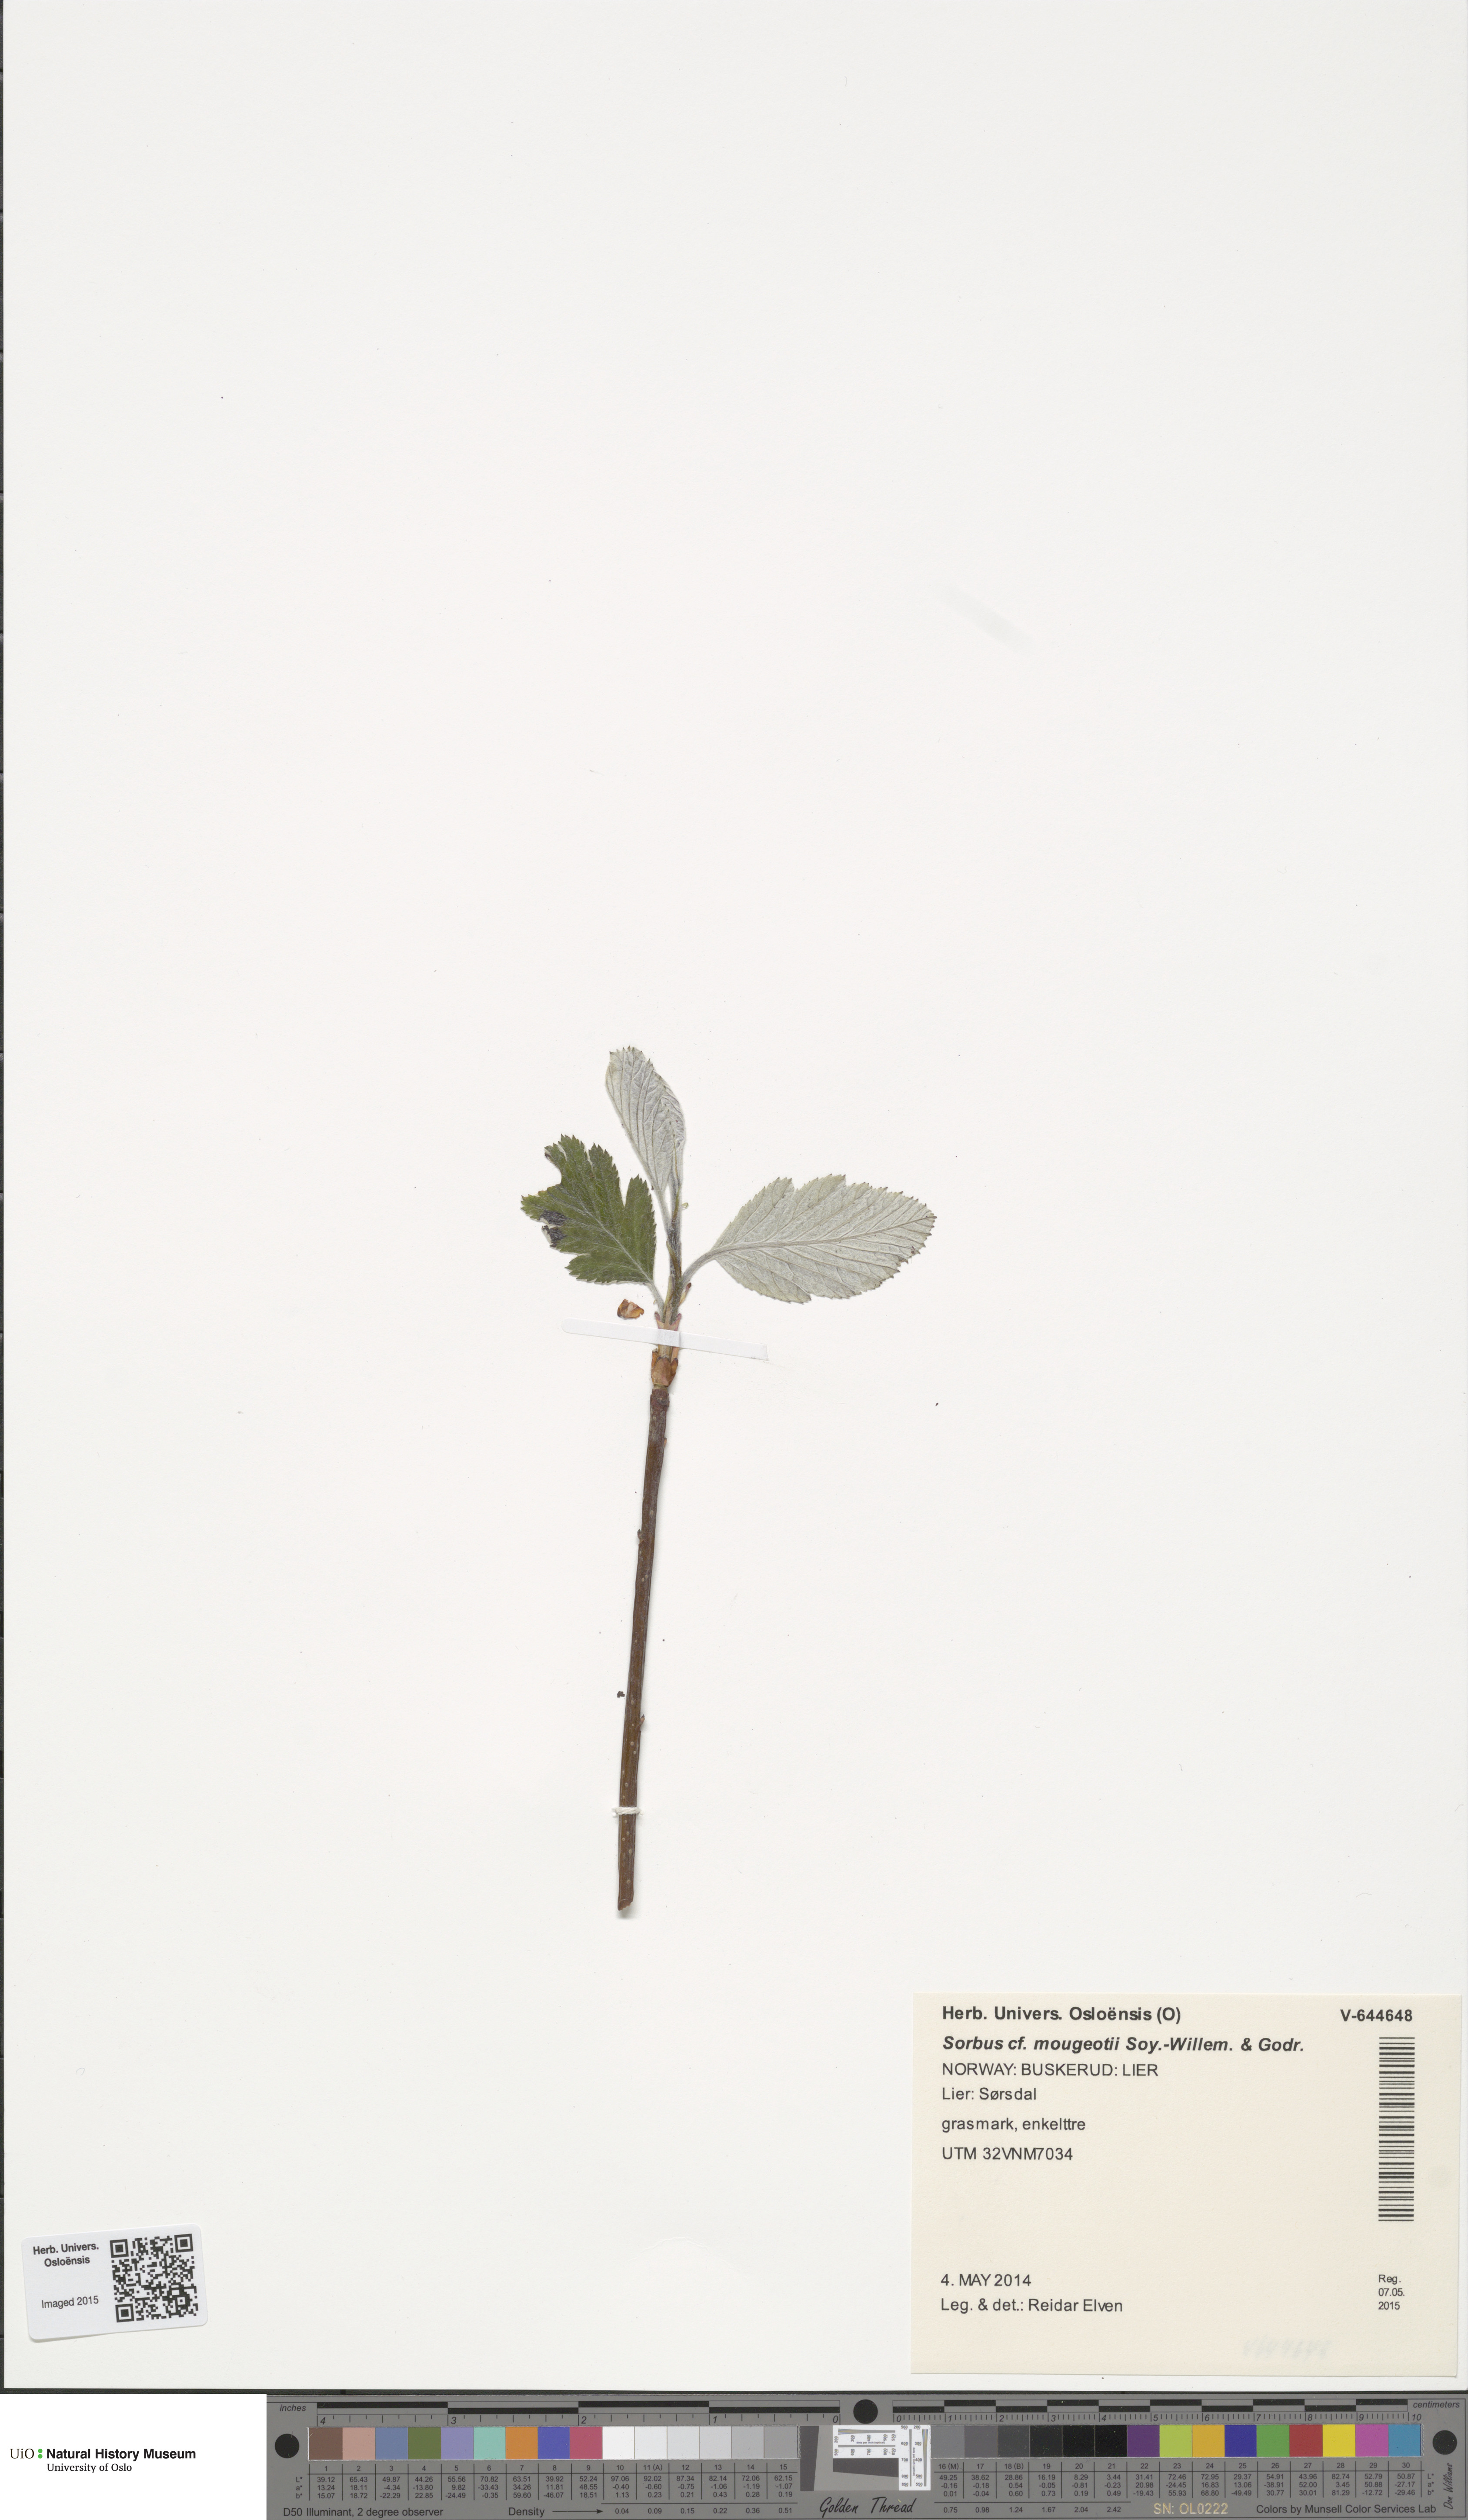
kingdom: Plantae
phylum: Tracheophyta
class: Magnoliopsida
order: Rosales
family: Rosaceae
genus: Hedlundia
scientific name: Hedlundia mougeotii
